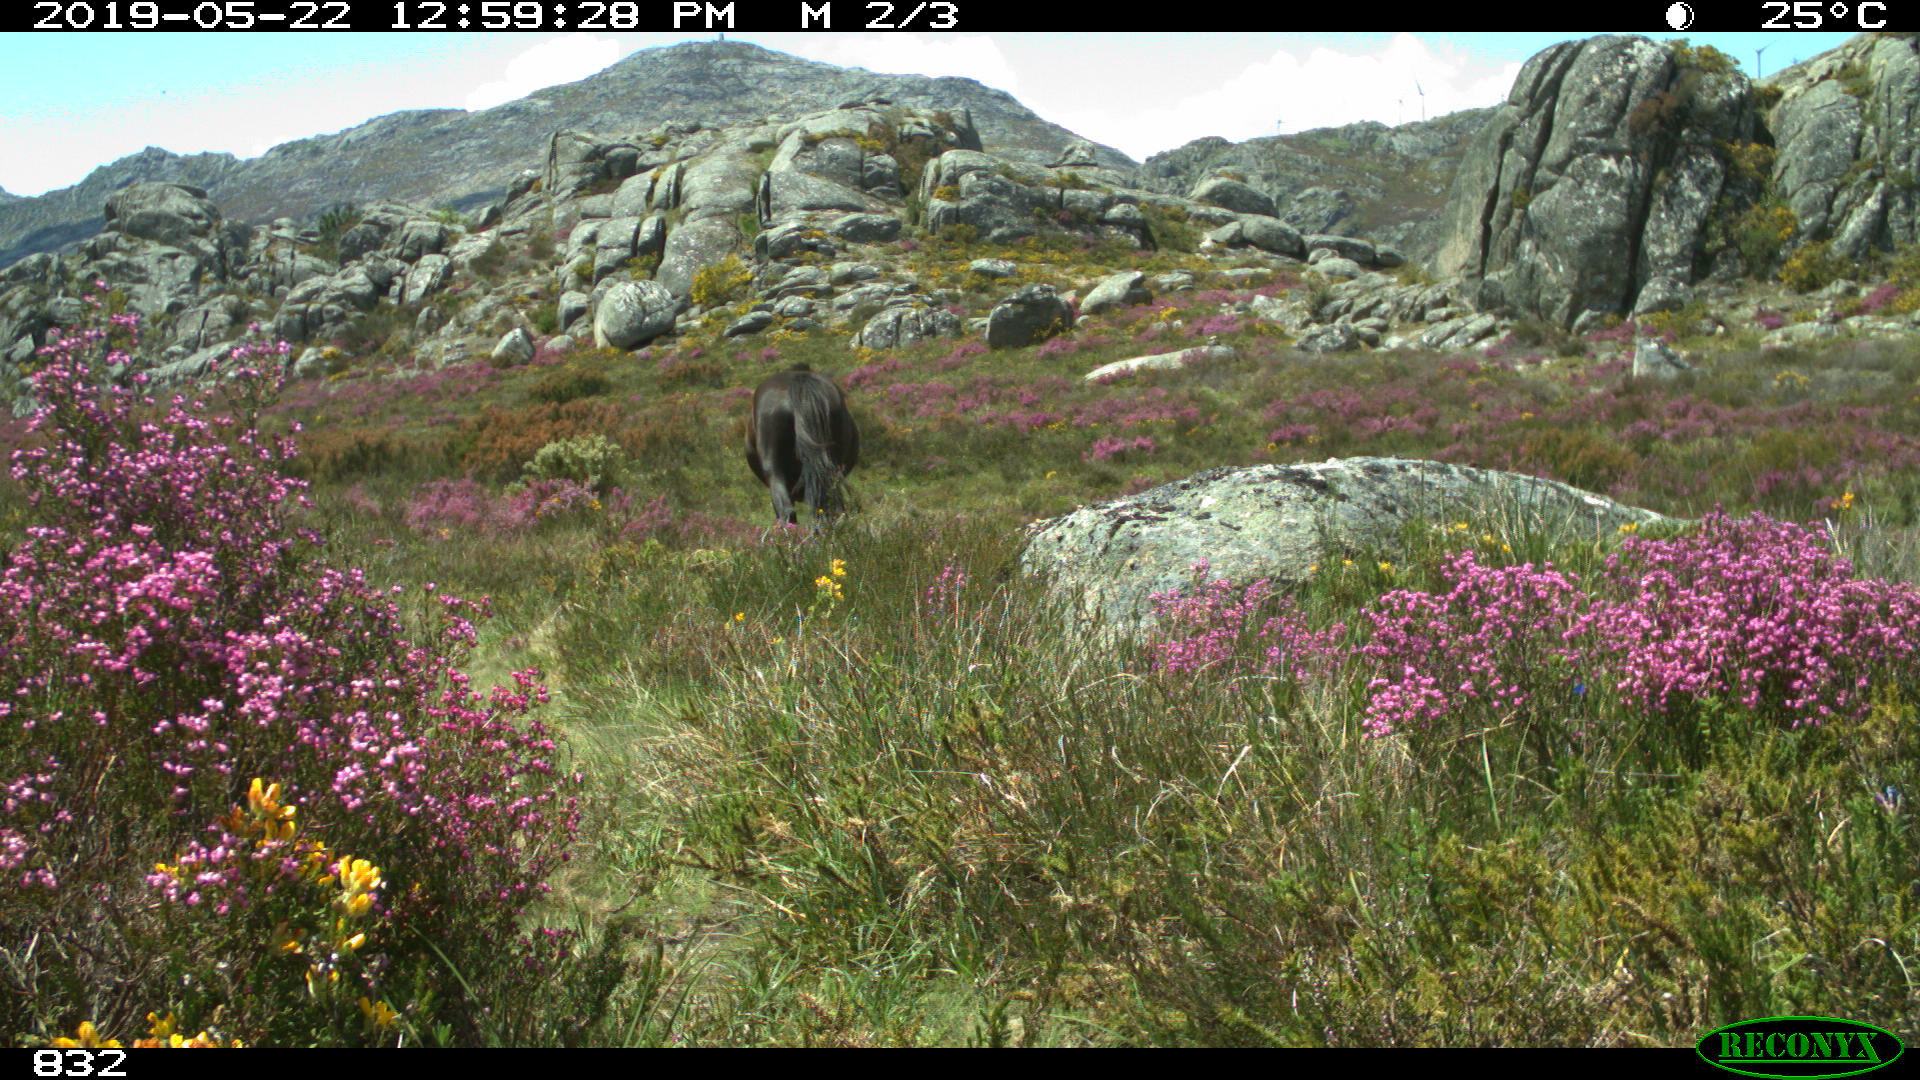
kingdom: Animalia
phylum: Chordata
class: Mammalia
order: Perissodactyla
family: Equidae
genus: Equus
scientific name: Equus caballus
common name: Horse
